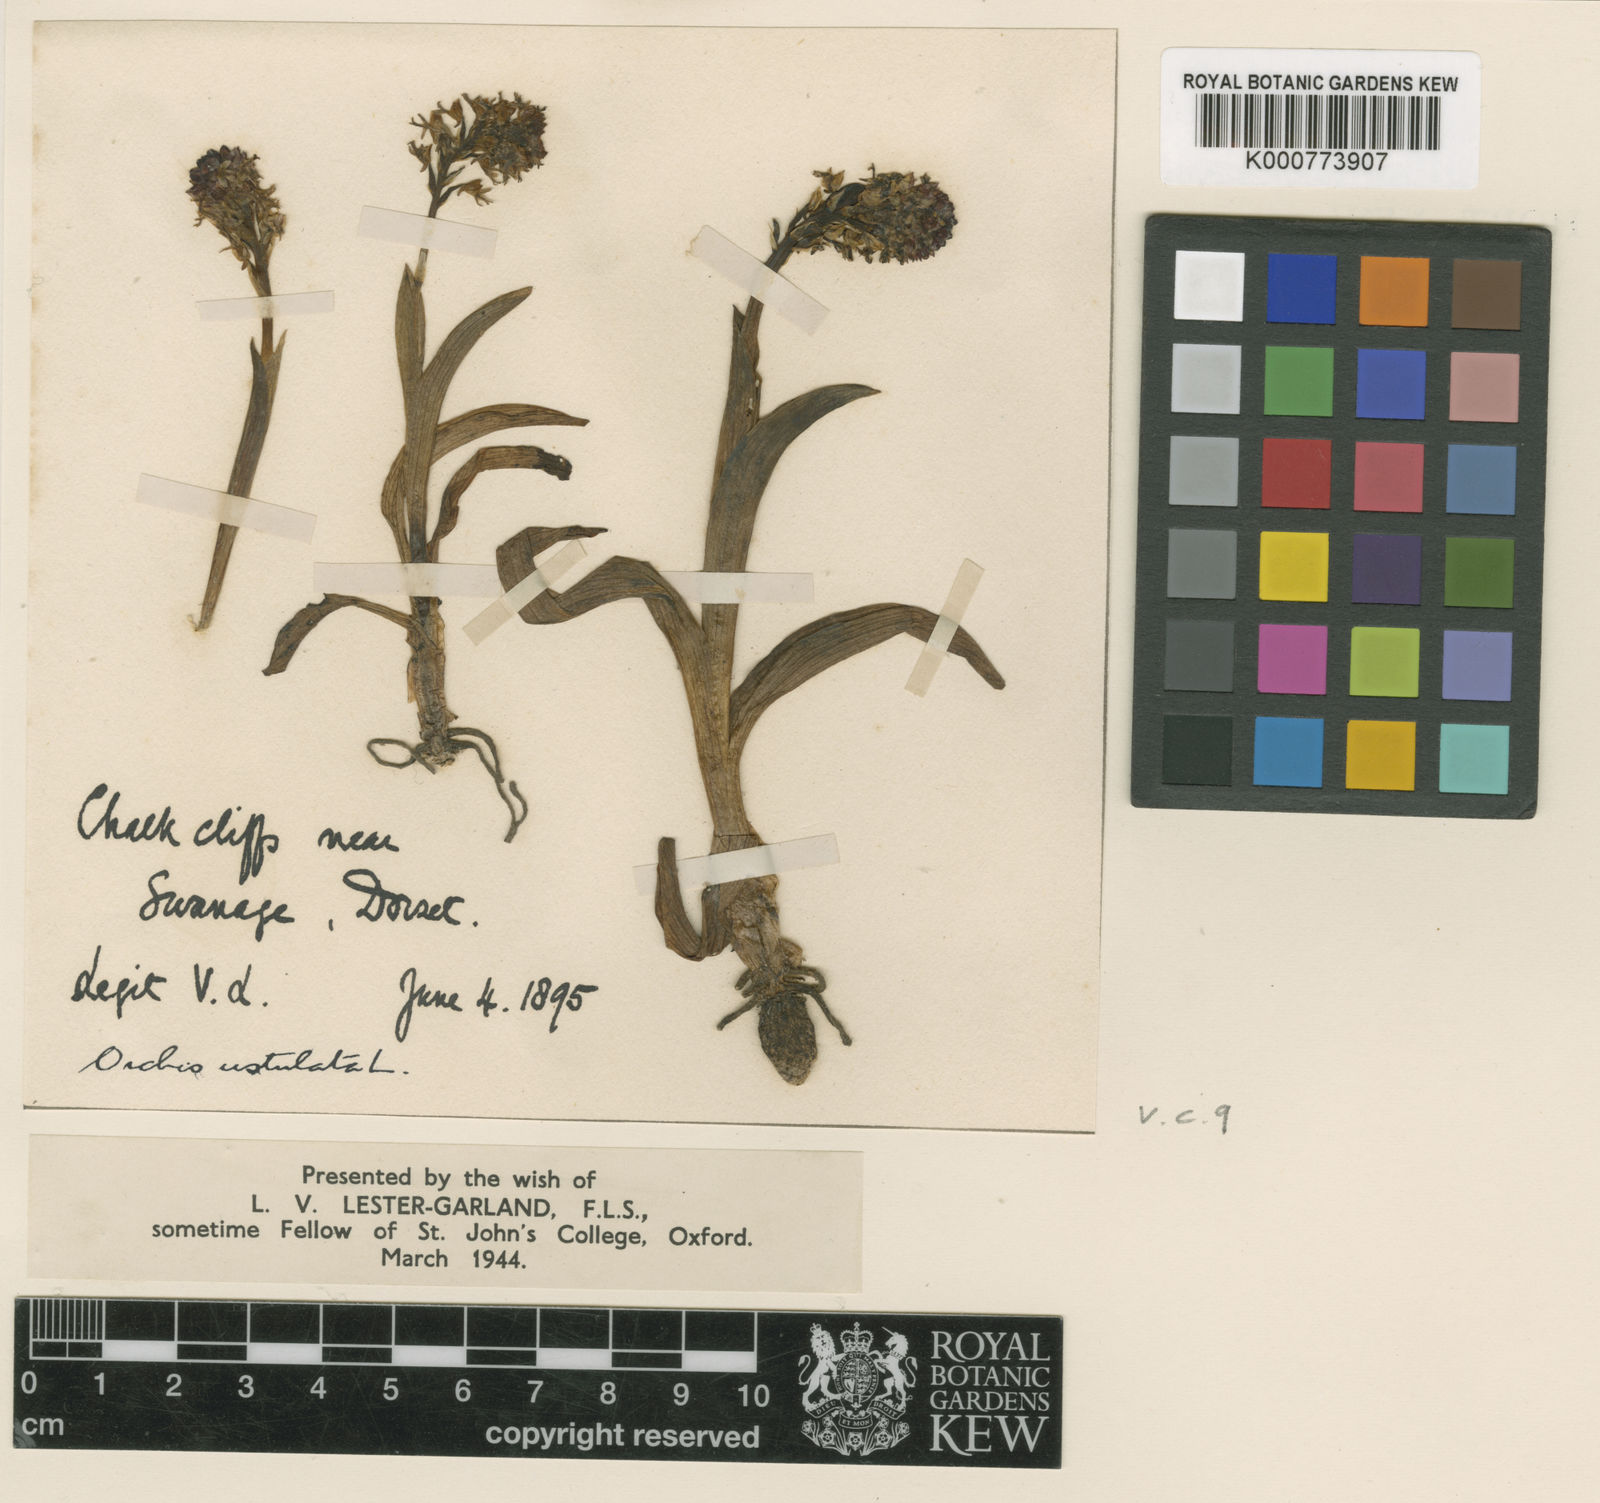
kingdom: Plantae
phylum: Tracheophyta
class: Liliopsida
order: Asparagales
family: Orchidaceae
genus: Neotinea
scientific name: Neotinea ustulata
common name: Burnt orchid
